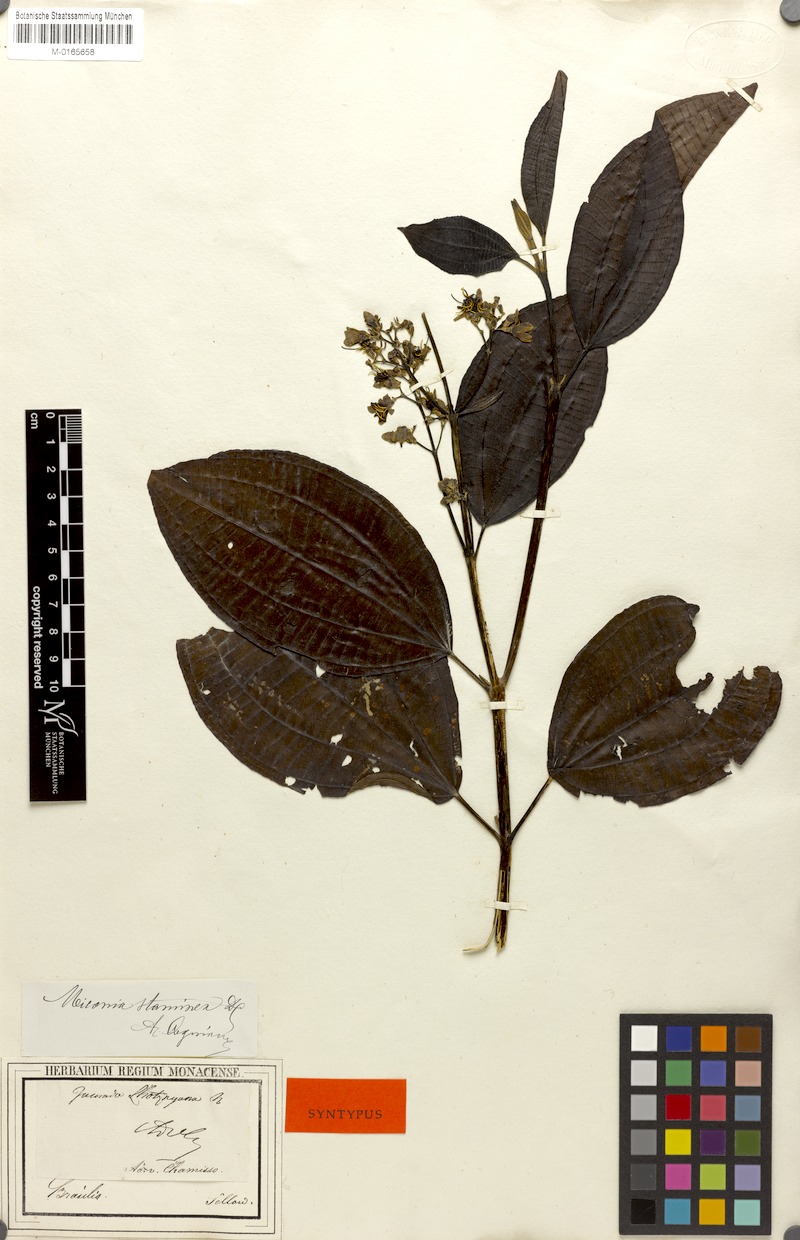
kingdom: Plantae
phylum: Tracheophyta
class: Magnoliopsida
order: Myrtales
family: Melastomataceae
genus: Miconia
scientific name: Miconia staminea
